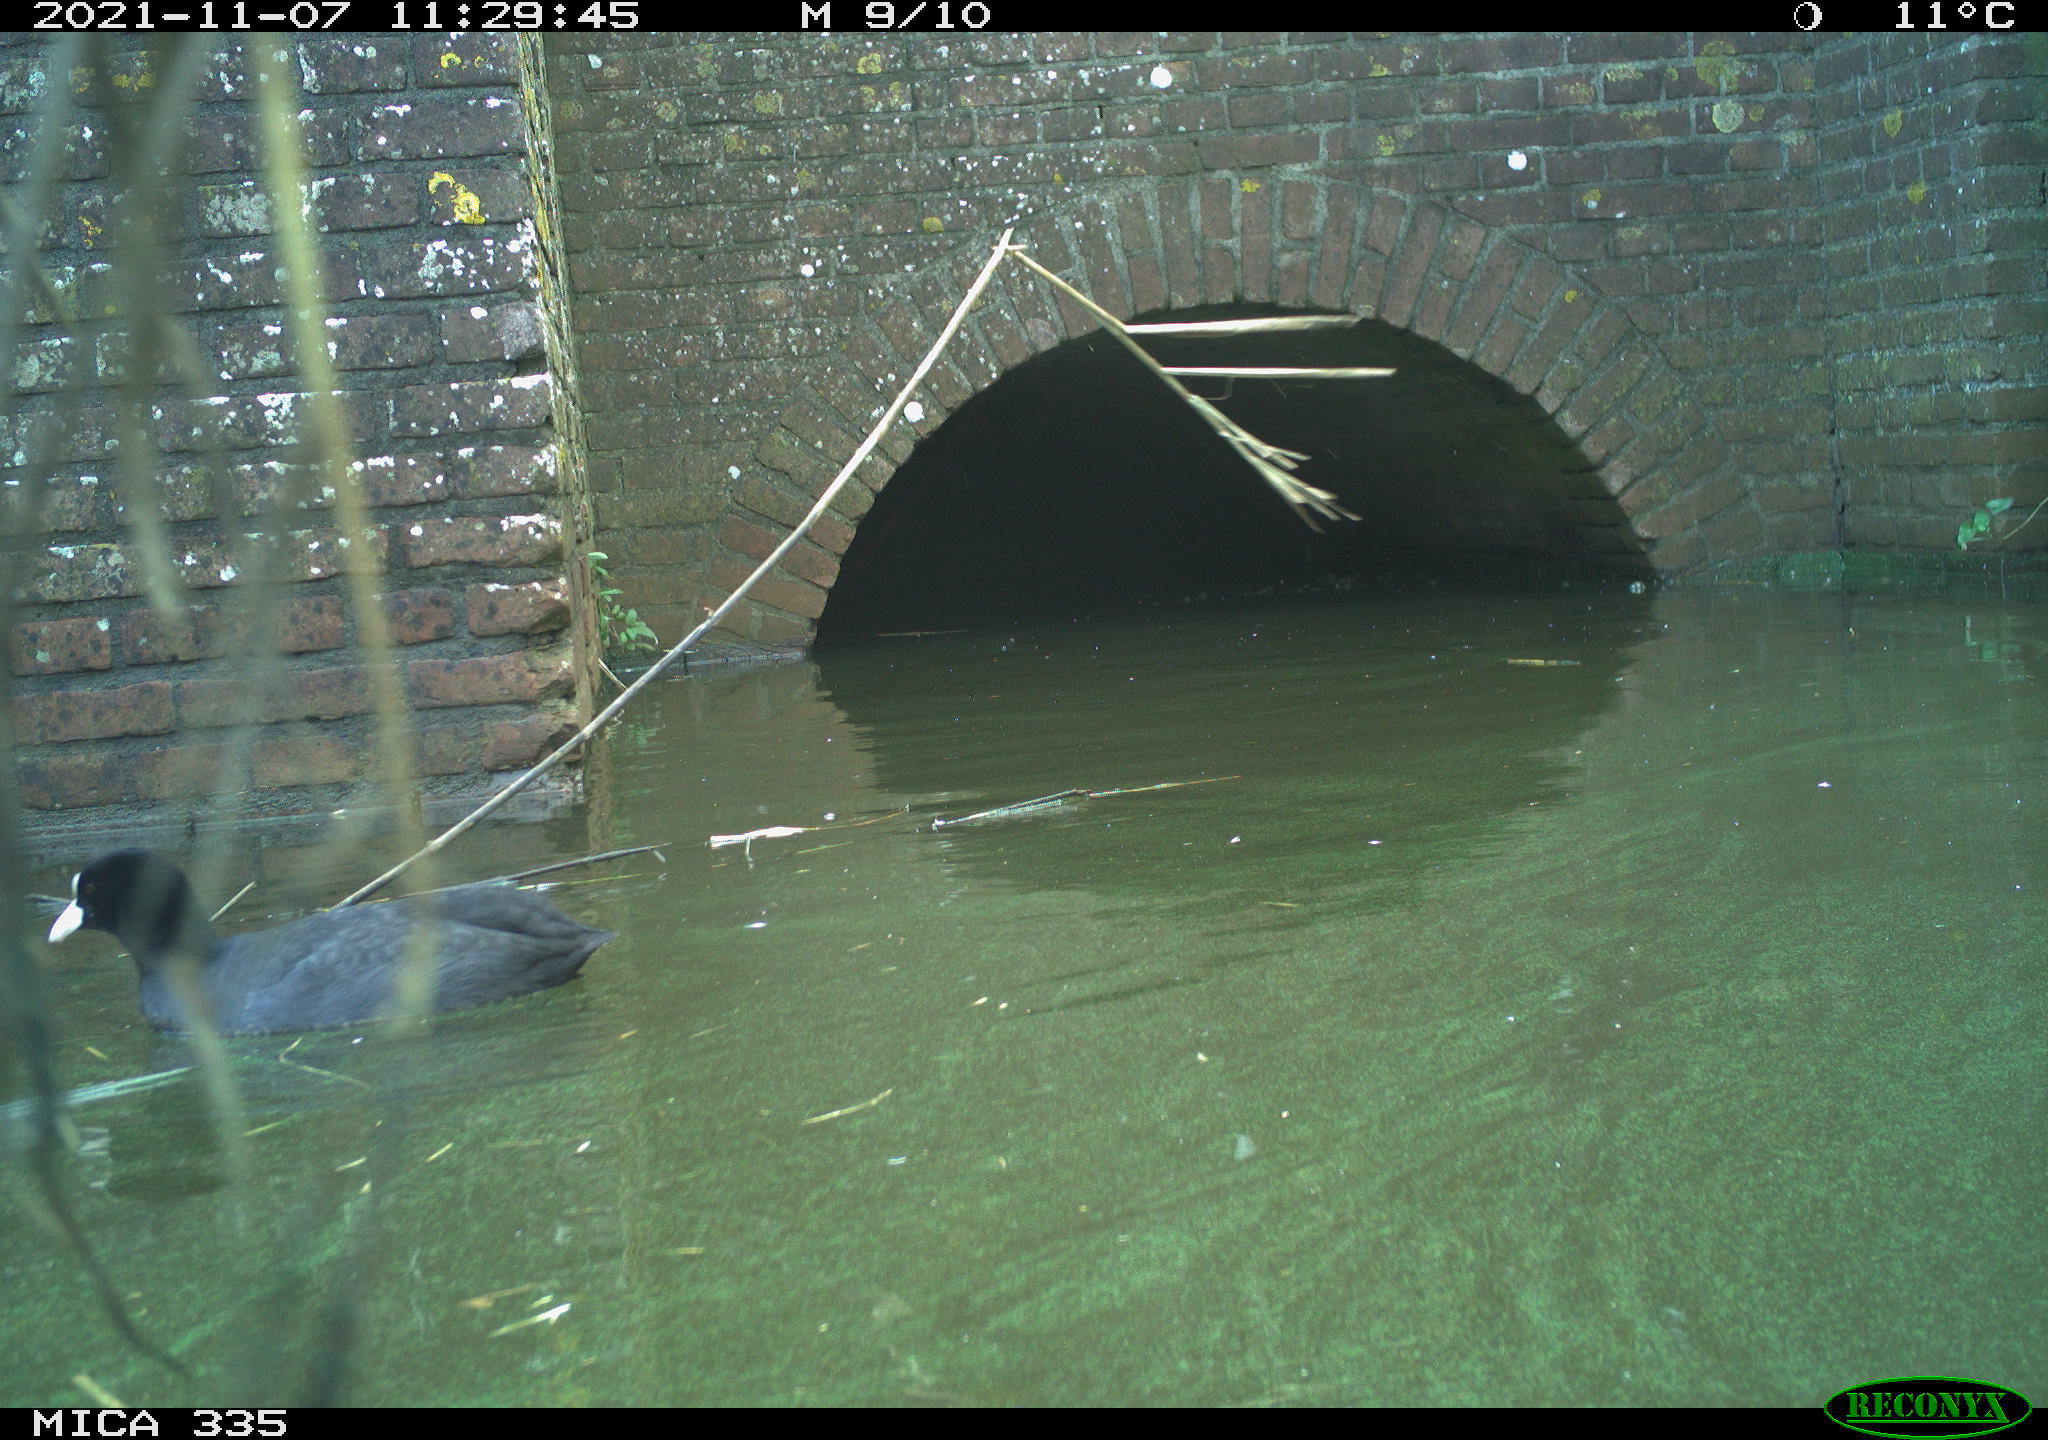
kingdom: Animalia
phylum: Chordata
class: Aves
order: Anseriformes
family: Anatidae
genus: Anas
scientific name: Anas platyrhynchos
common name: Mallard
